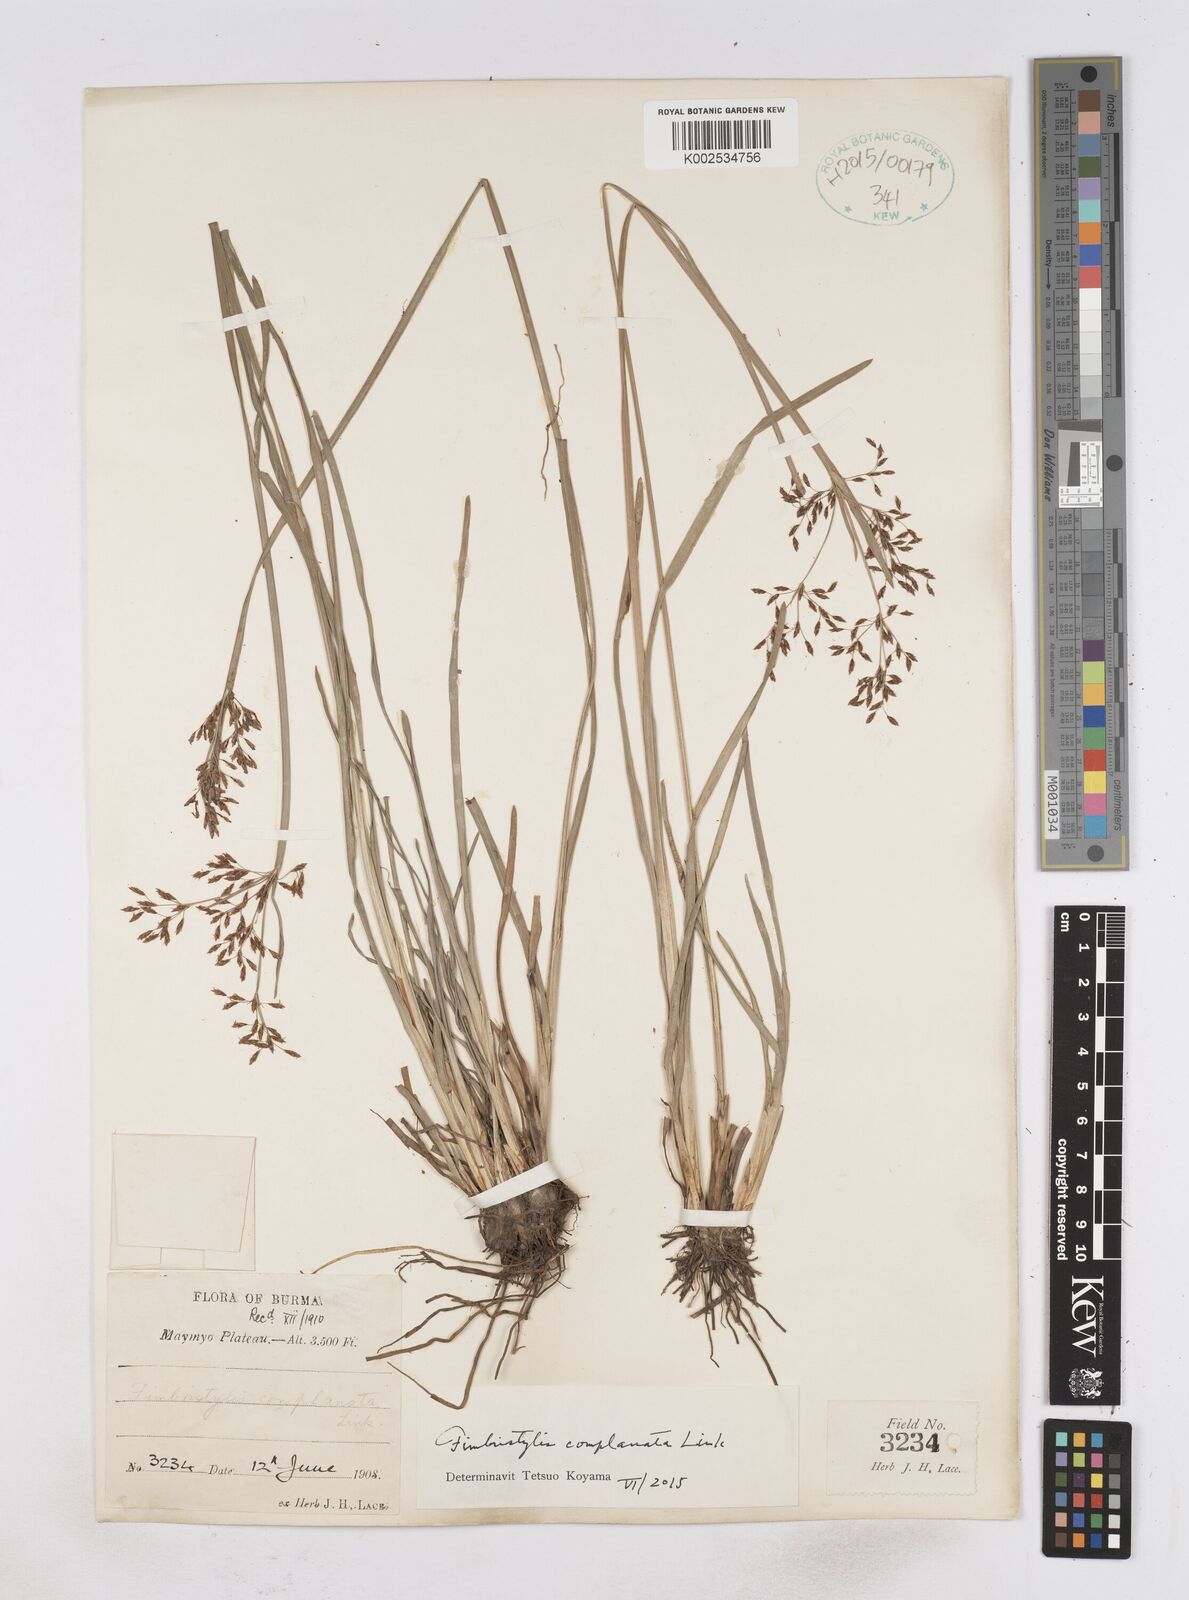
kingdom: Plantae
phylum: Tracheophyta
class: Liliopsida
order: Poales
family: Cyperaceae
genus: Fimbristylis
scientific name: Fimbristylis complanata
